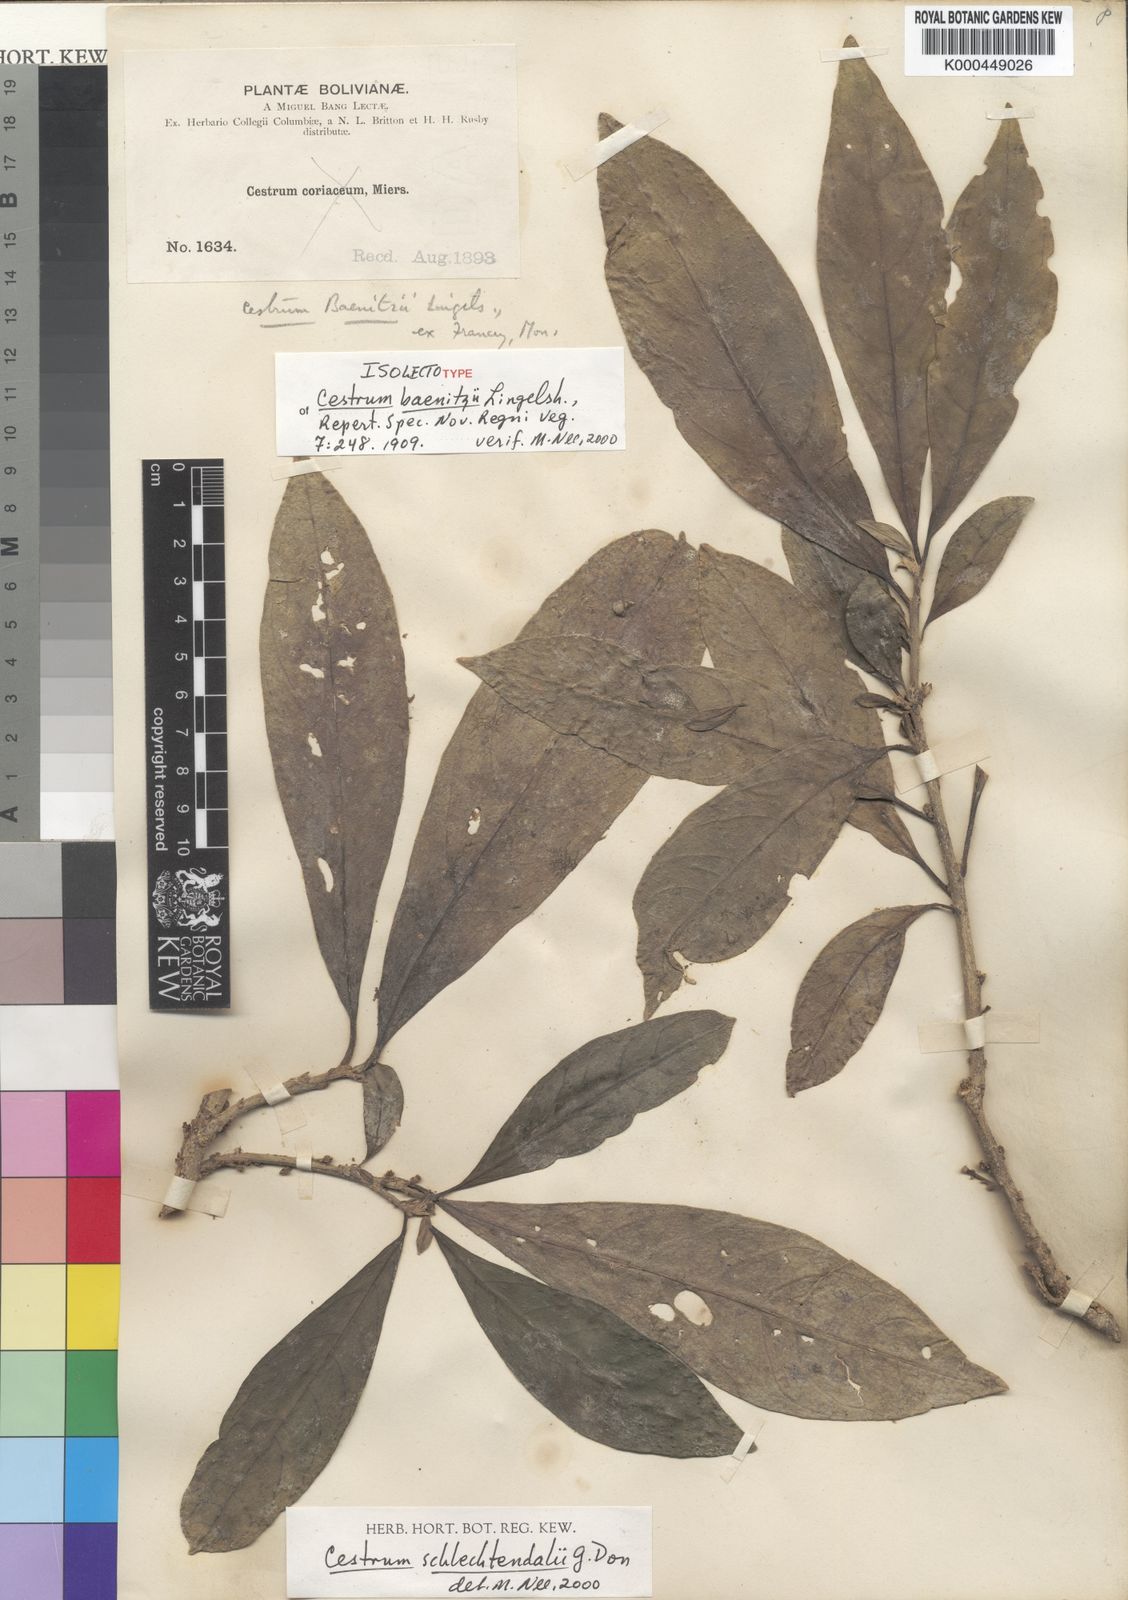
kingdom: Plantae
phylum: Tracheophyta
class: Magnoliopsida
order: Solanales
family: Solanaceae
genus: Cestrum
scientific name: Cestrum schlechtendalii
